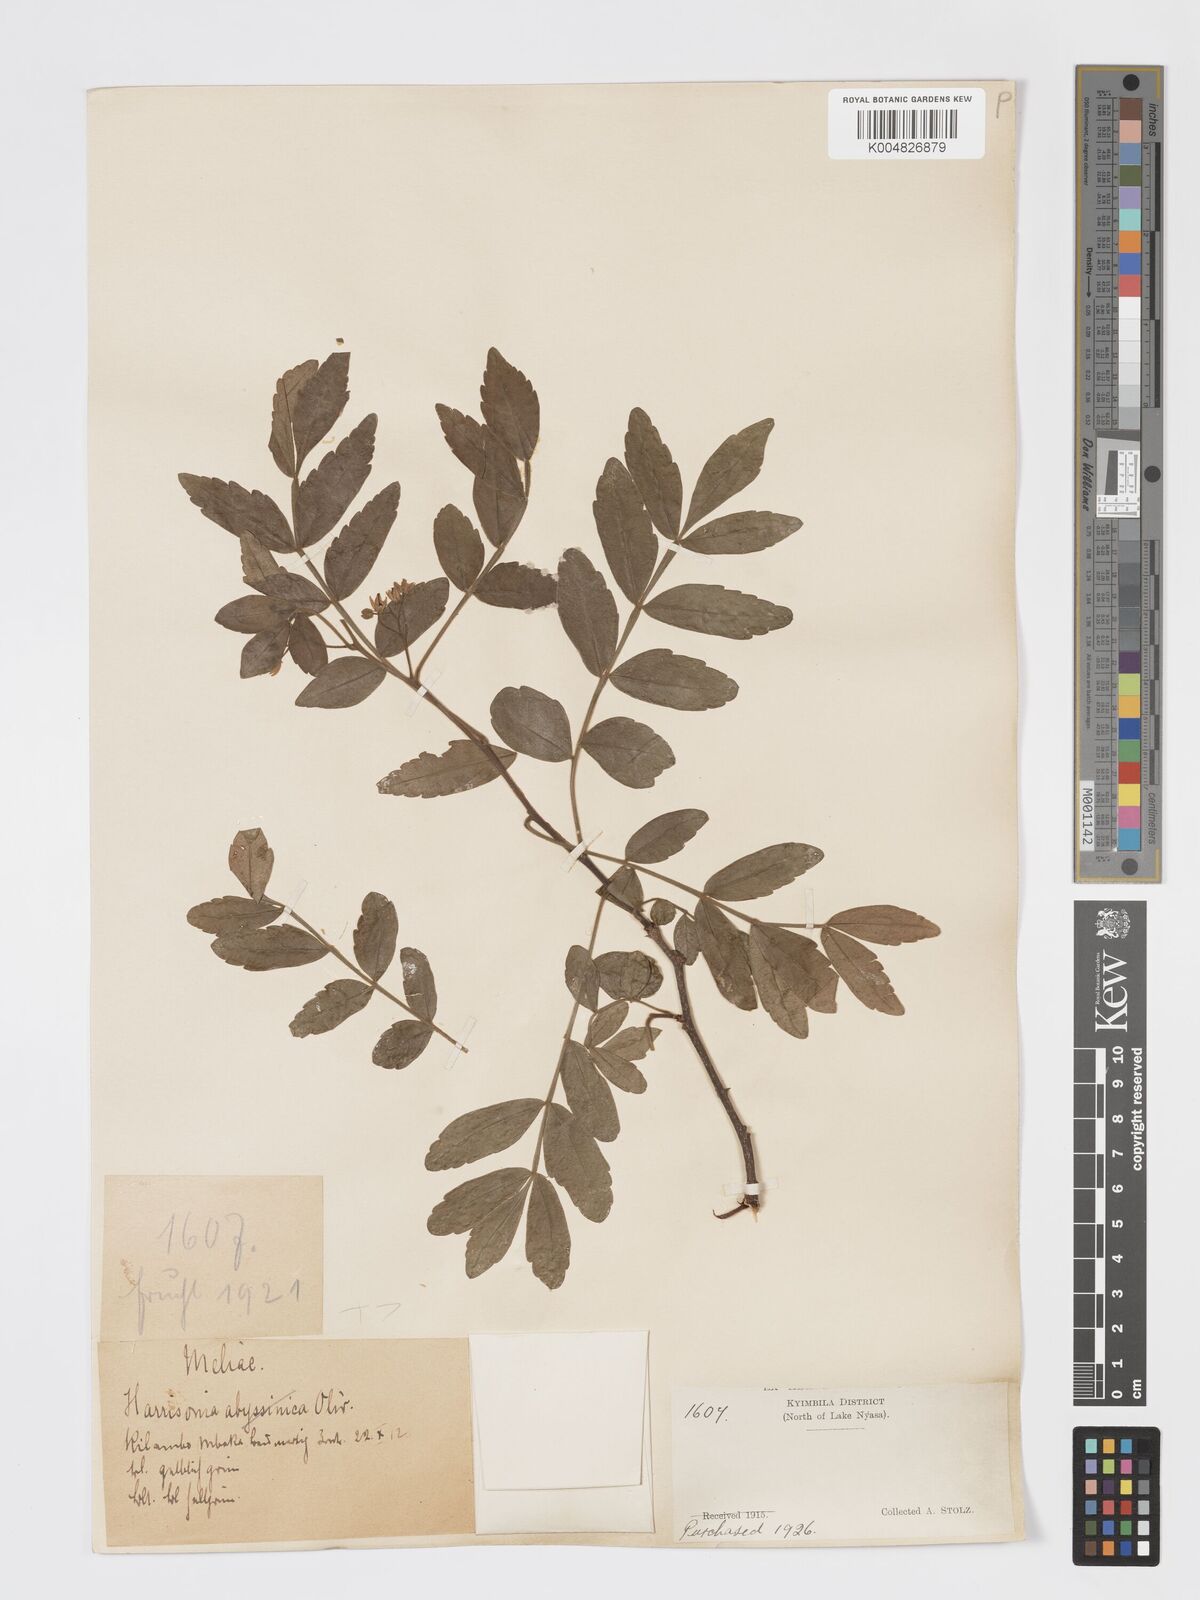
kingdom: Plantae
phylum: Tracheophyta
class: Magnoliopsida
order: Sapindales
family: Rutaceae
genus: Harrisonia
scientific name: Harrisonia abyssinica
